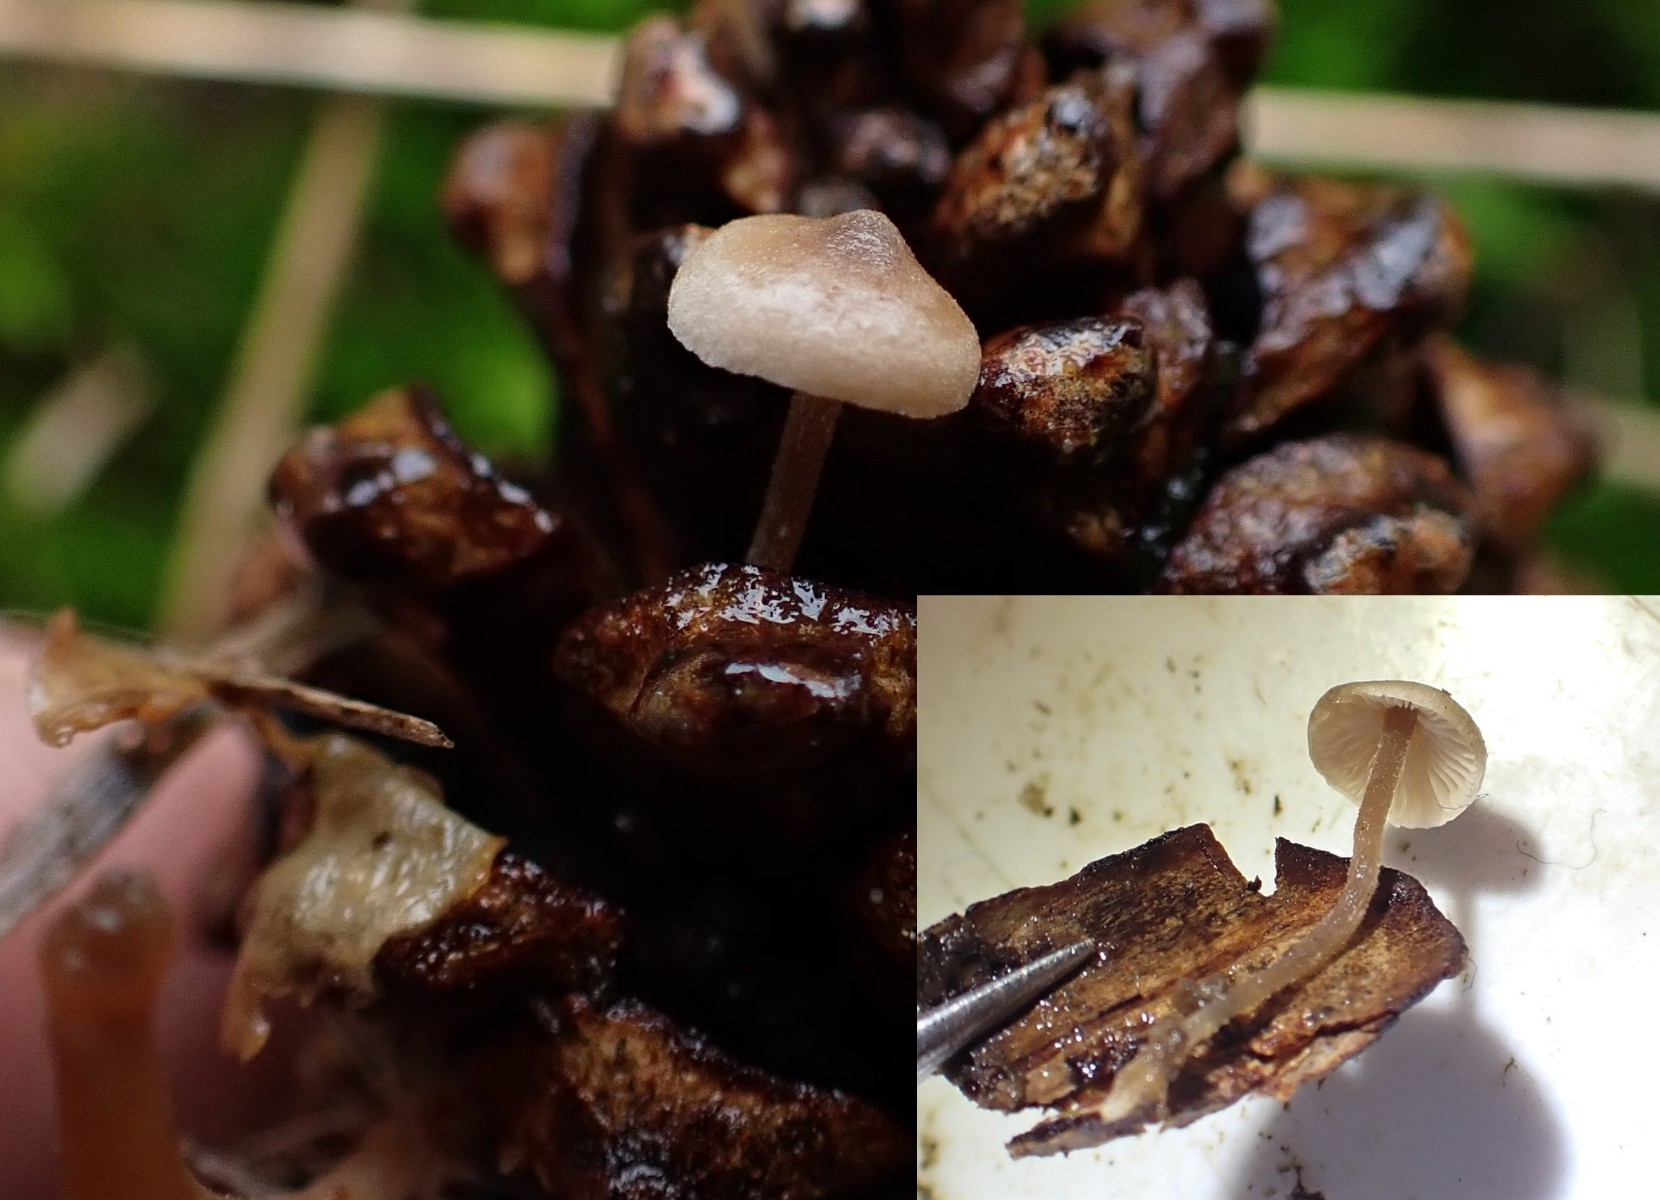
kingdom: Fungi
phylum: Basidiomycota
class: Agaricomycetes
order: Agaricales
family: Marasmiaceae
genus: Baeospora
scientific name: Baeospora myosura
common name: koglebruskhat
